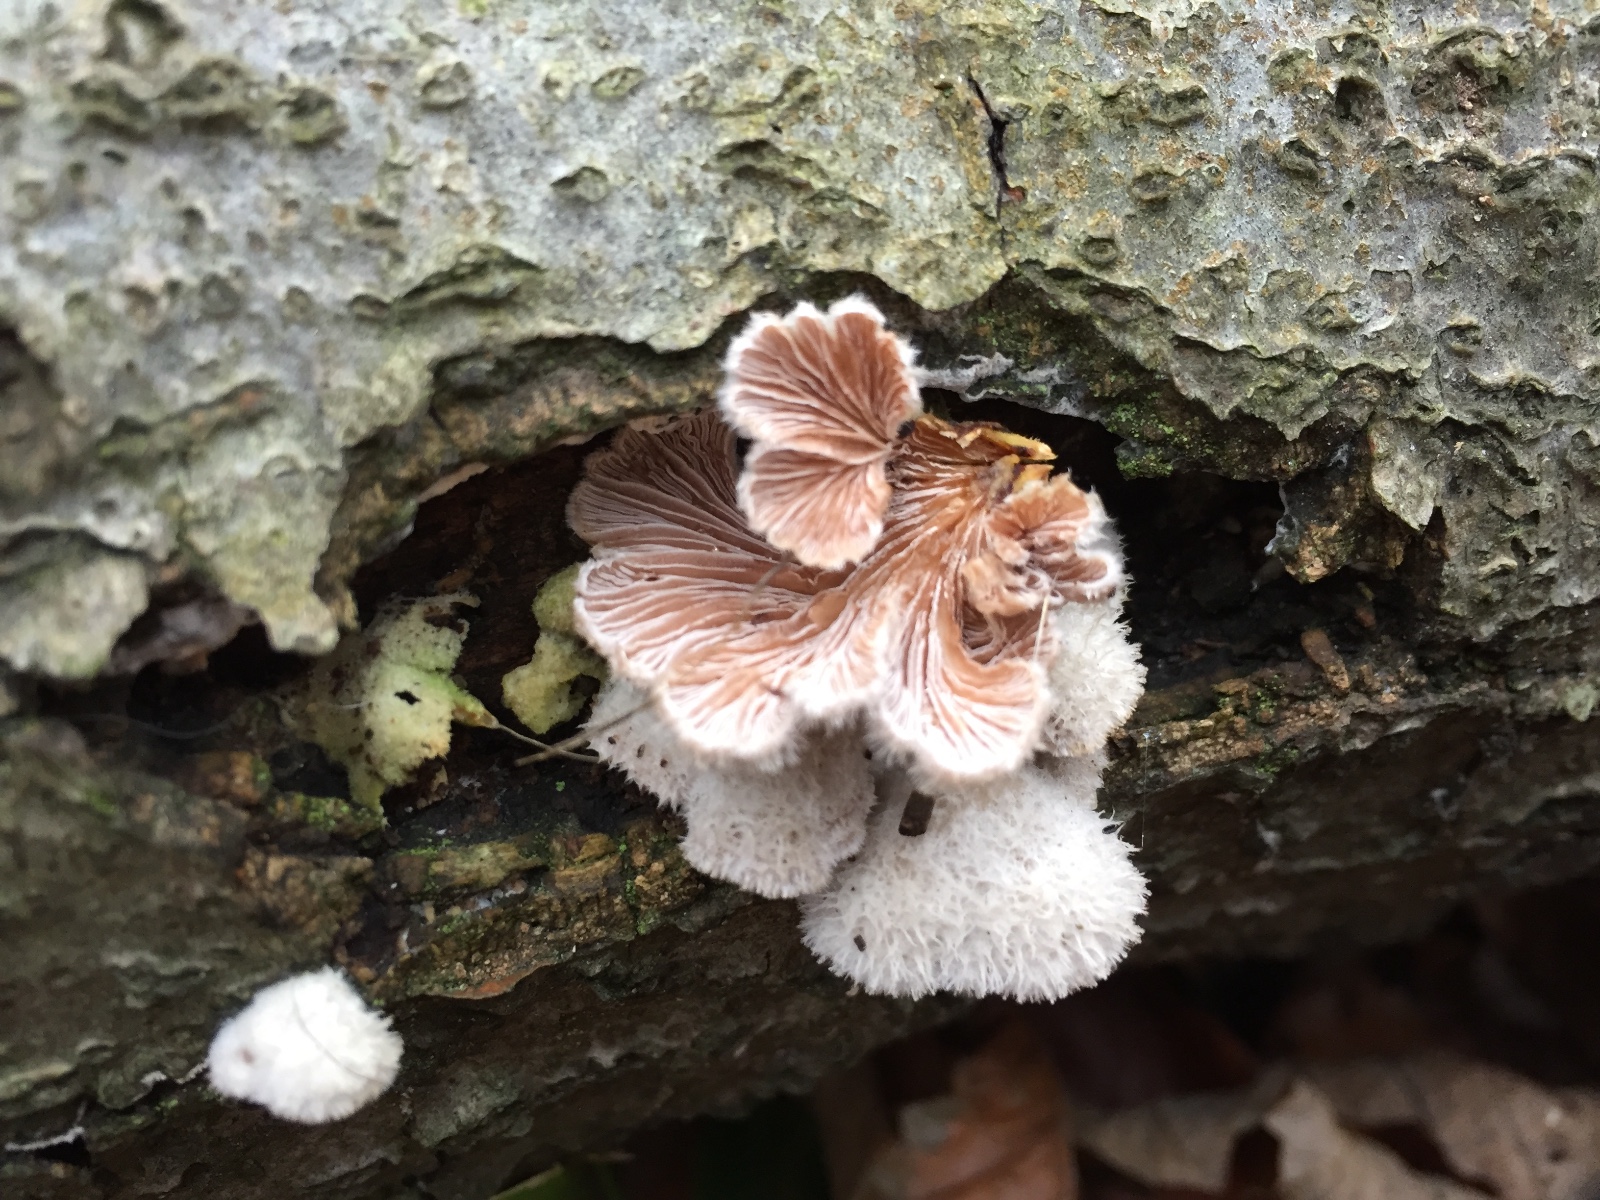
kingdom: Fungi
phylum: Basidiomycota
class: Agaricomycetes
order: Agaricales
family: Schizophyllaceae
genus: Schizophyllum
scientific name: Schizophyllum commune
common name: kløvblad
